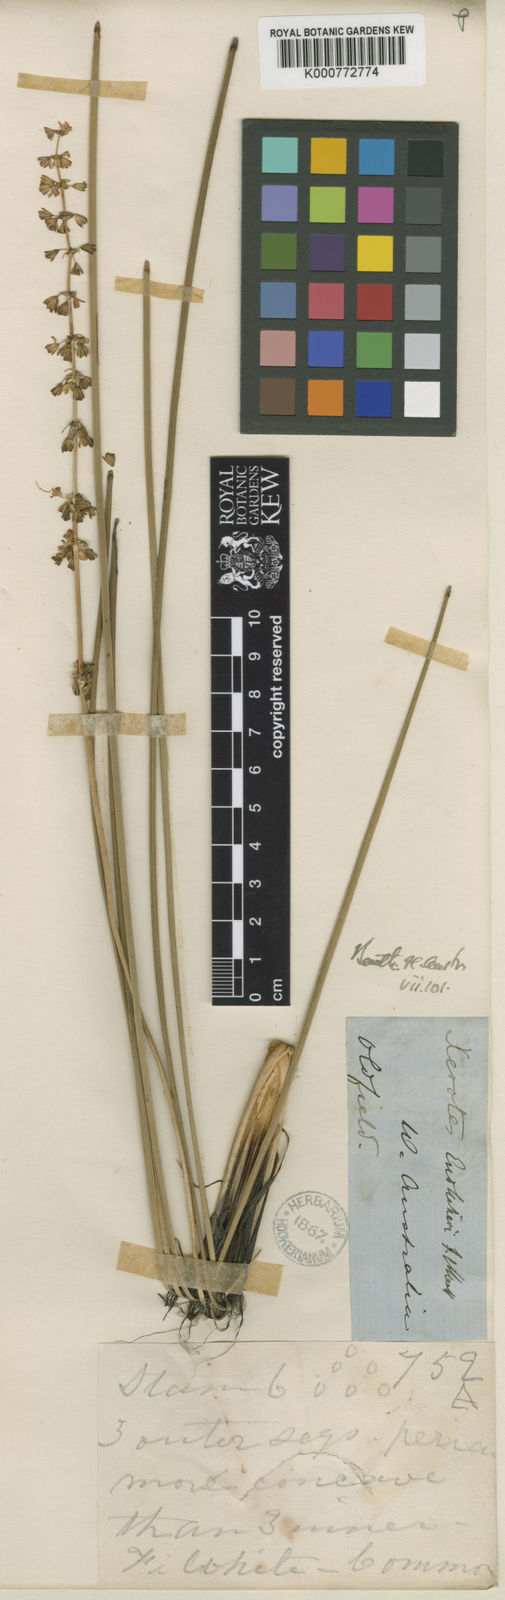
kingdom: Plantae
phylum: Tracheophyta
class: Liliopsida
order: Asparagales
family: Asparagaceae
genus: Lomandra
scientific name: Lomandra odora
